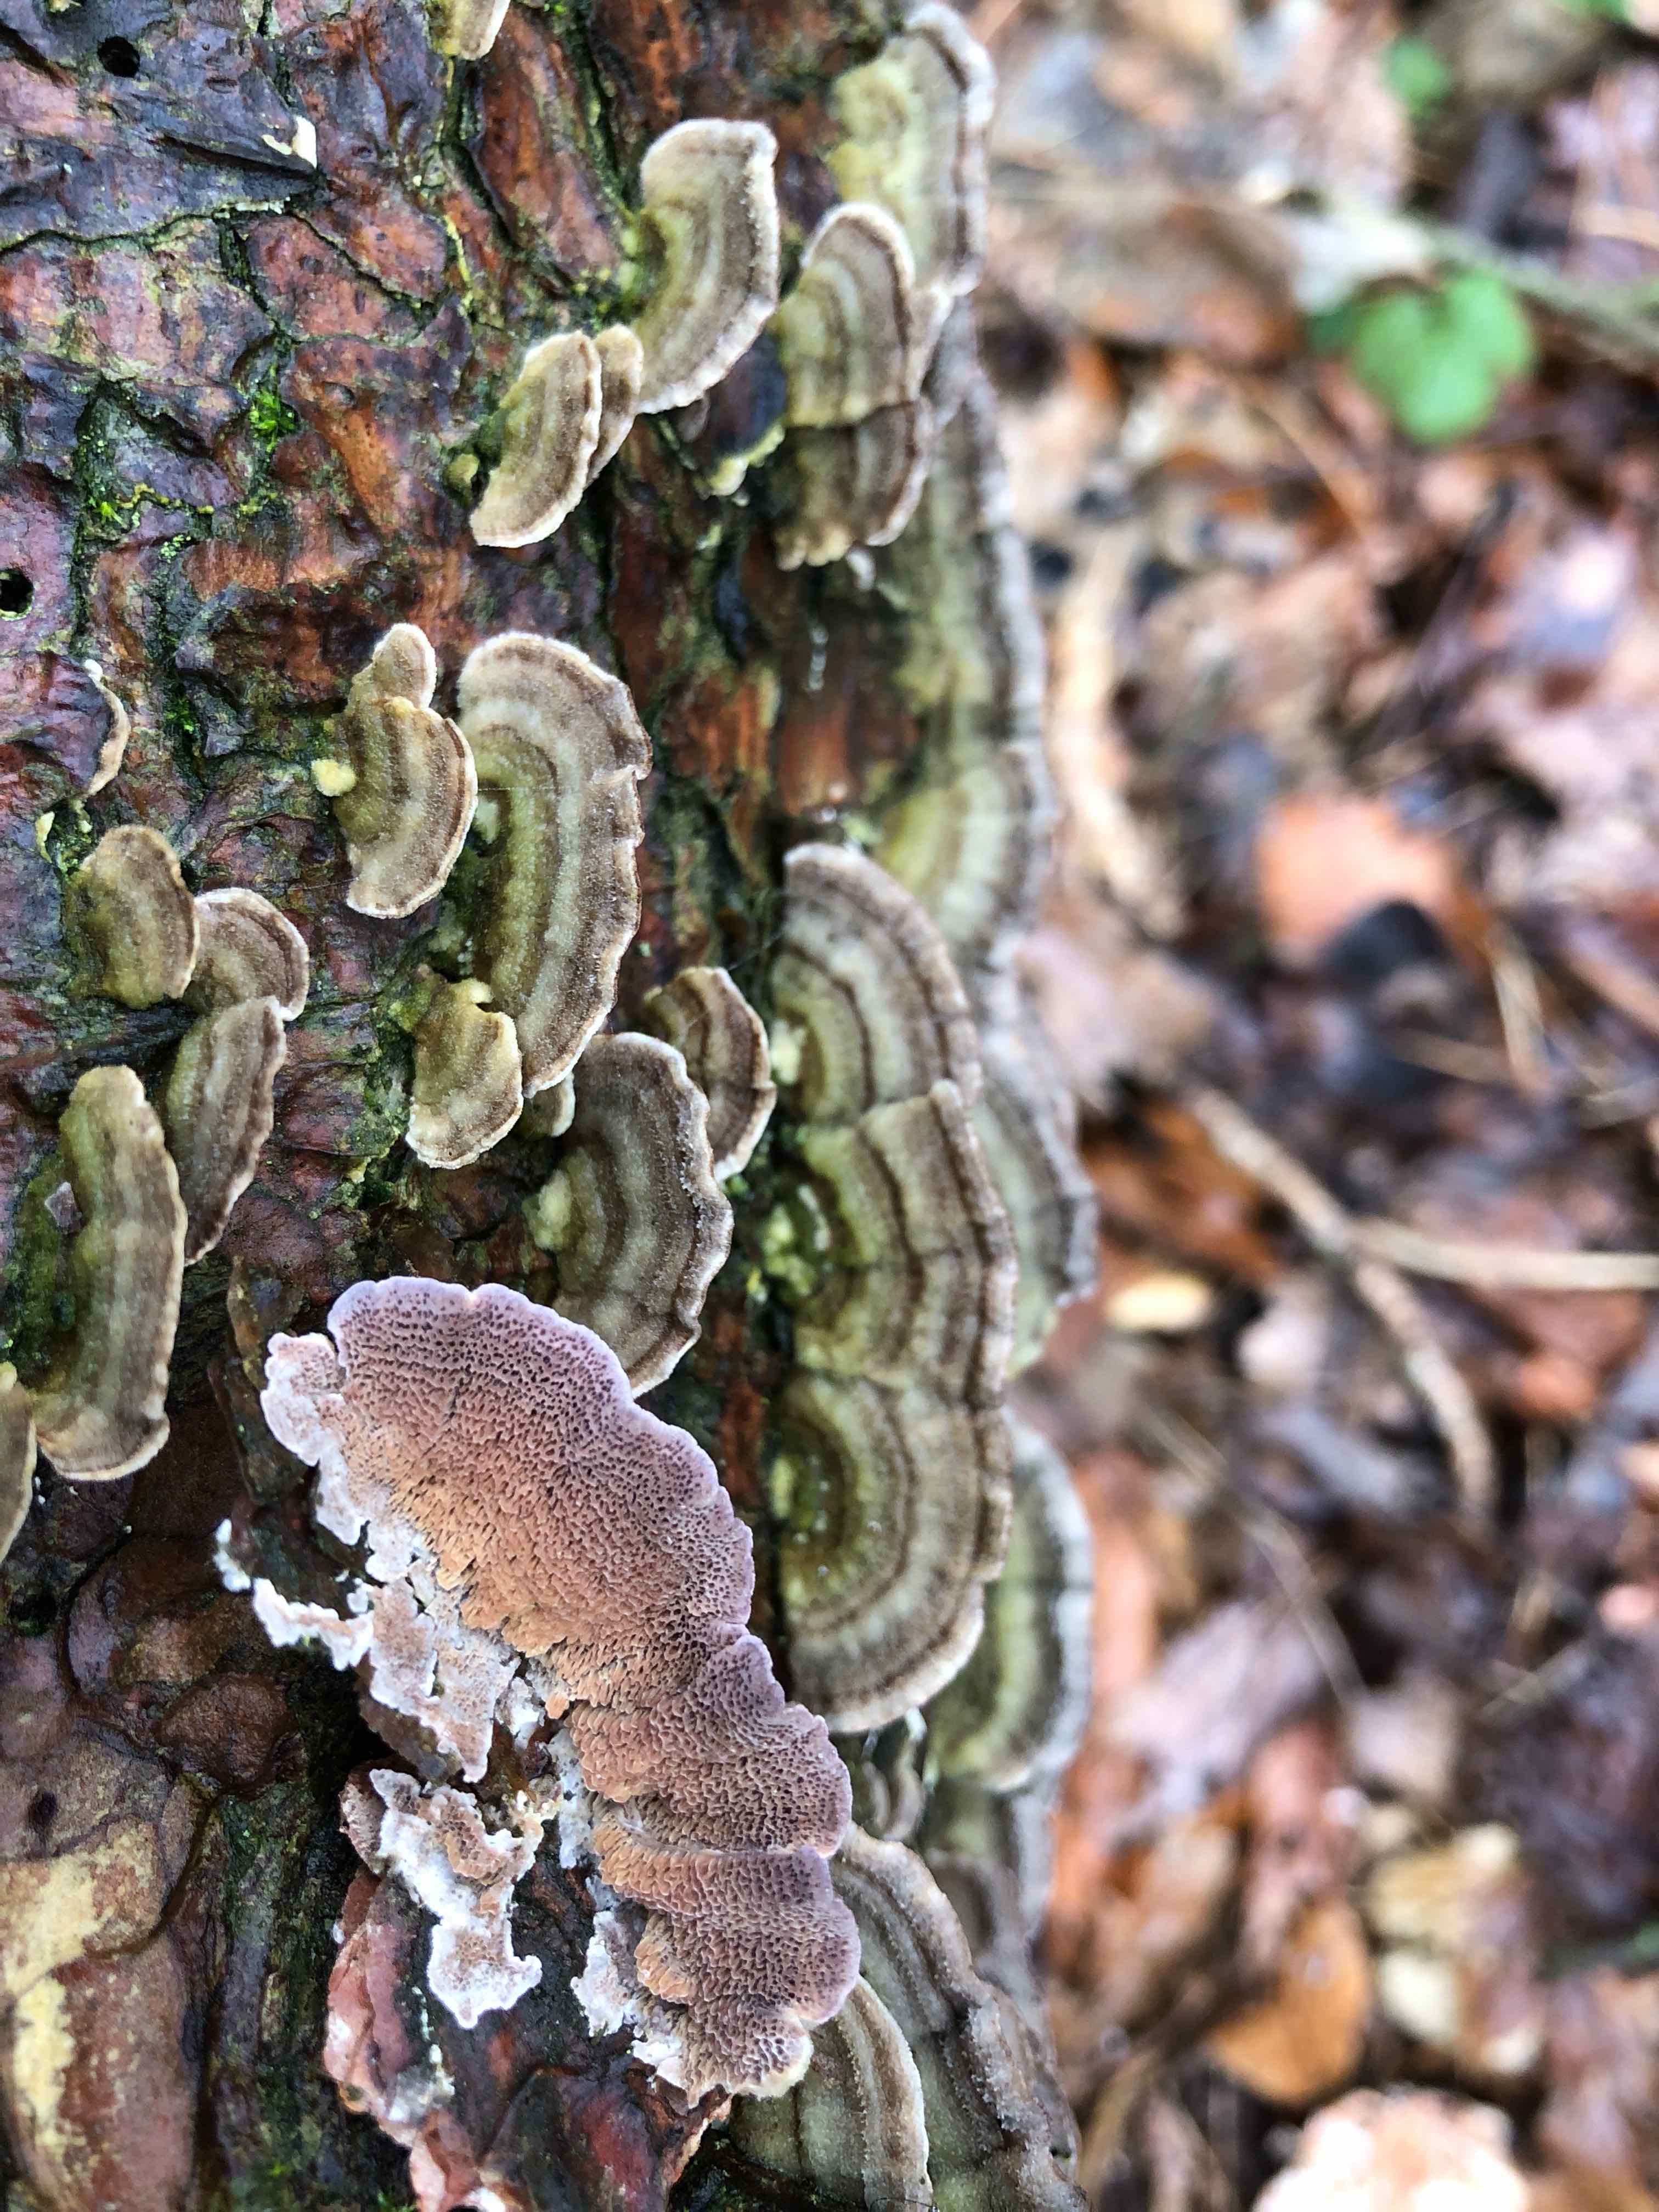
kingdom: Fungi
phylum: Basidiomycota
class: Agaricomycetes
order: Hymenochaetales
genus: Trichaptum
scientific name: Trichaptum abietinum
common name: almindelig violporesvamp
